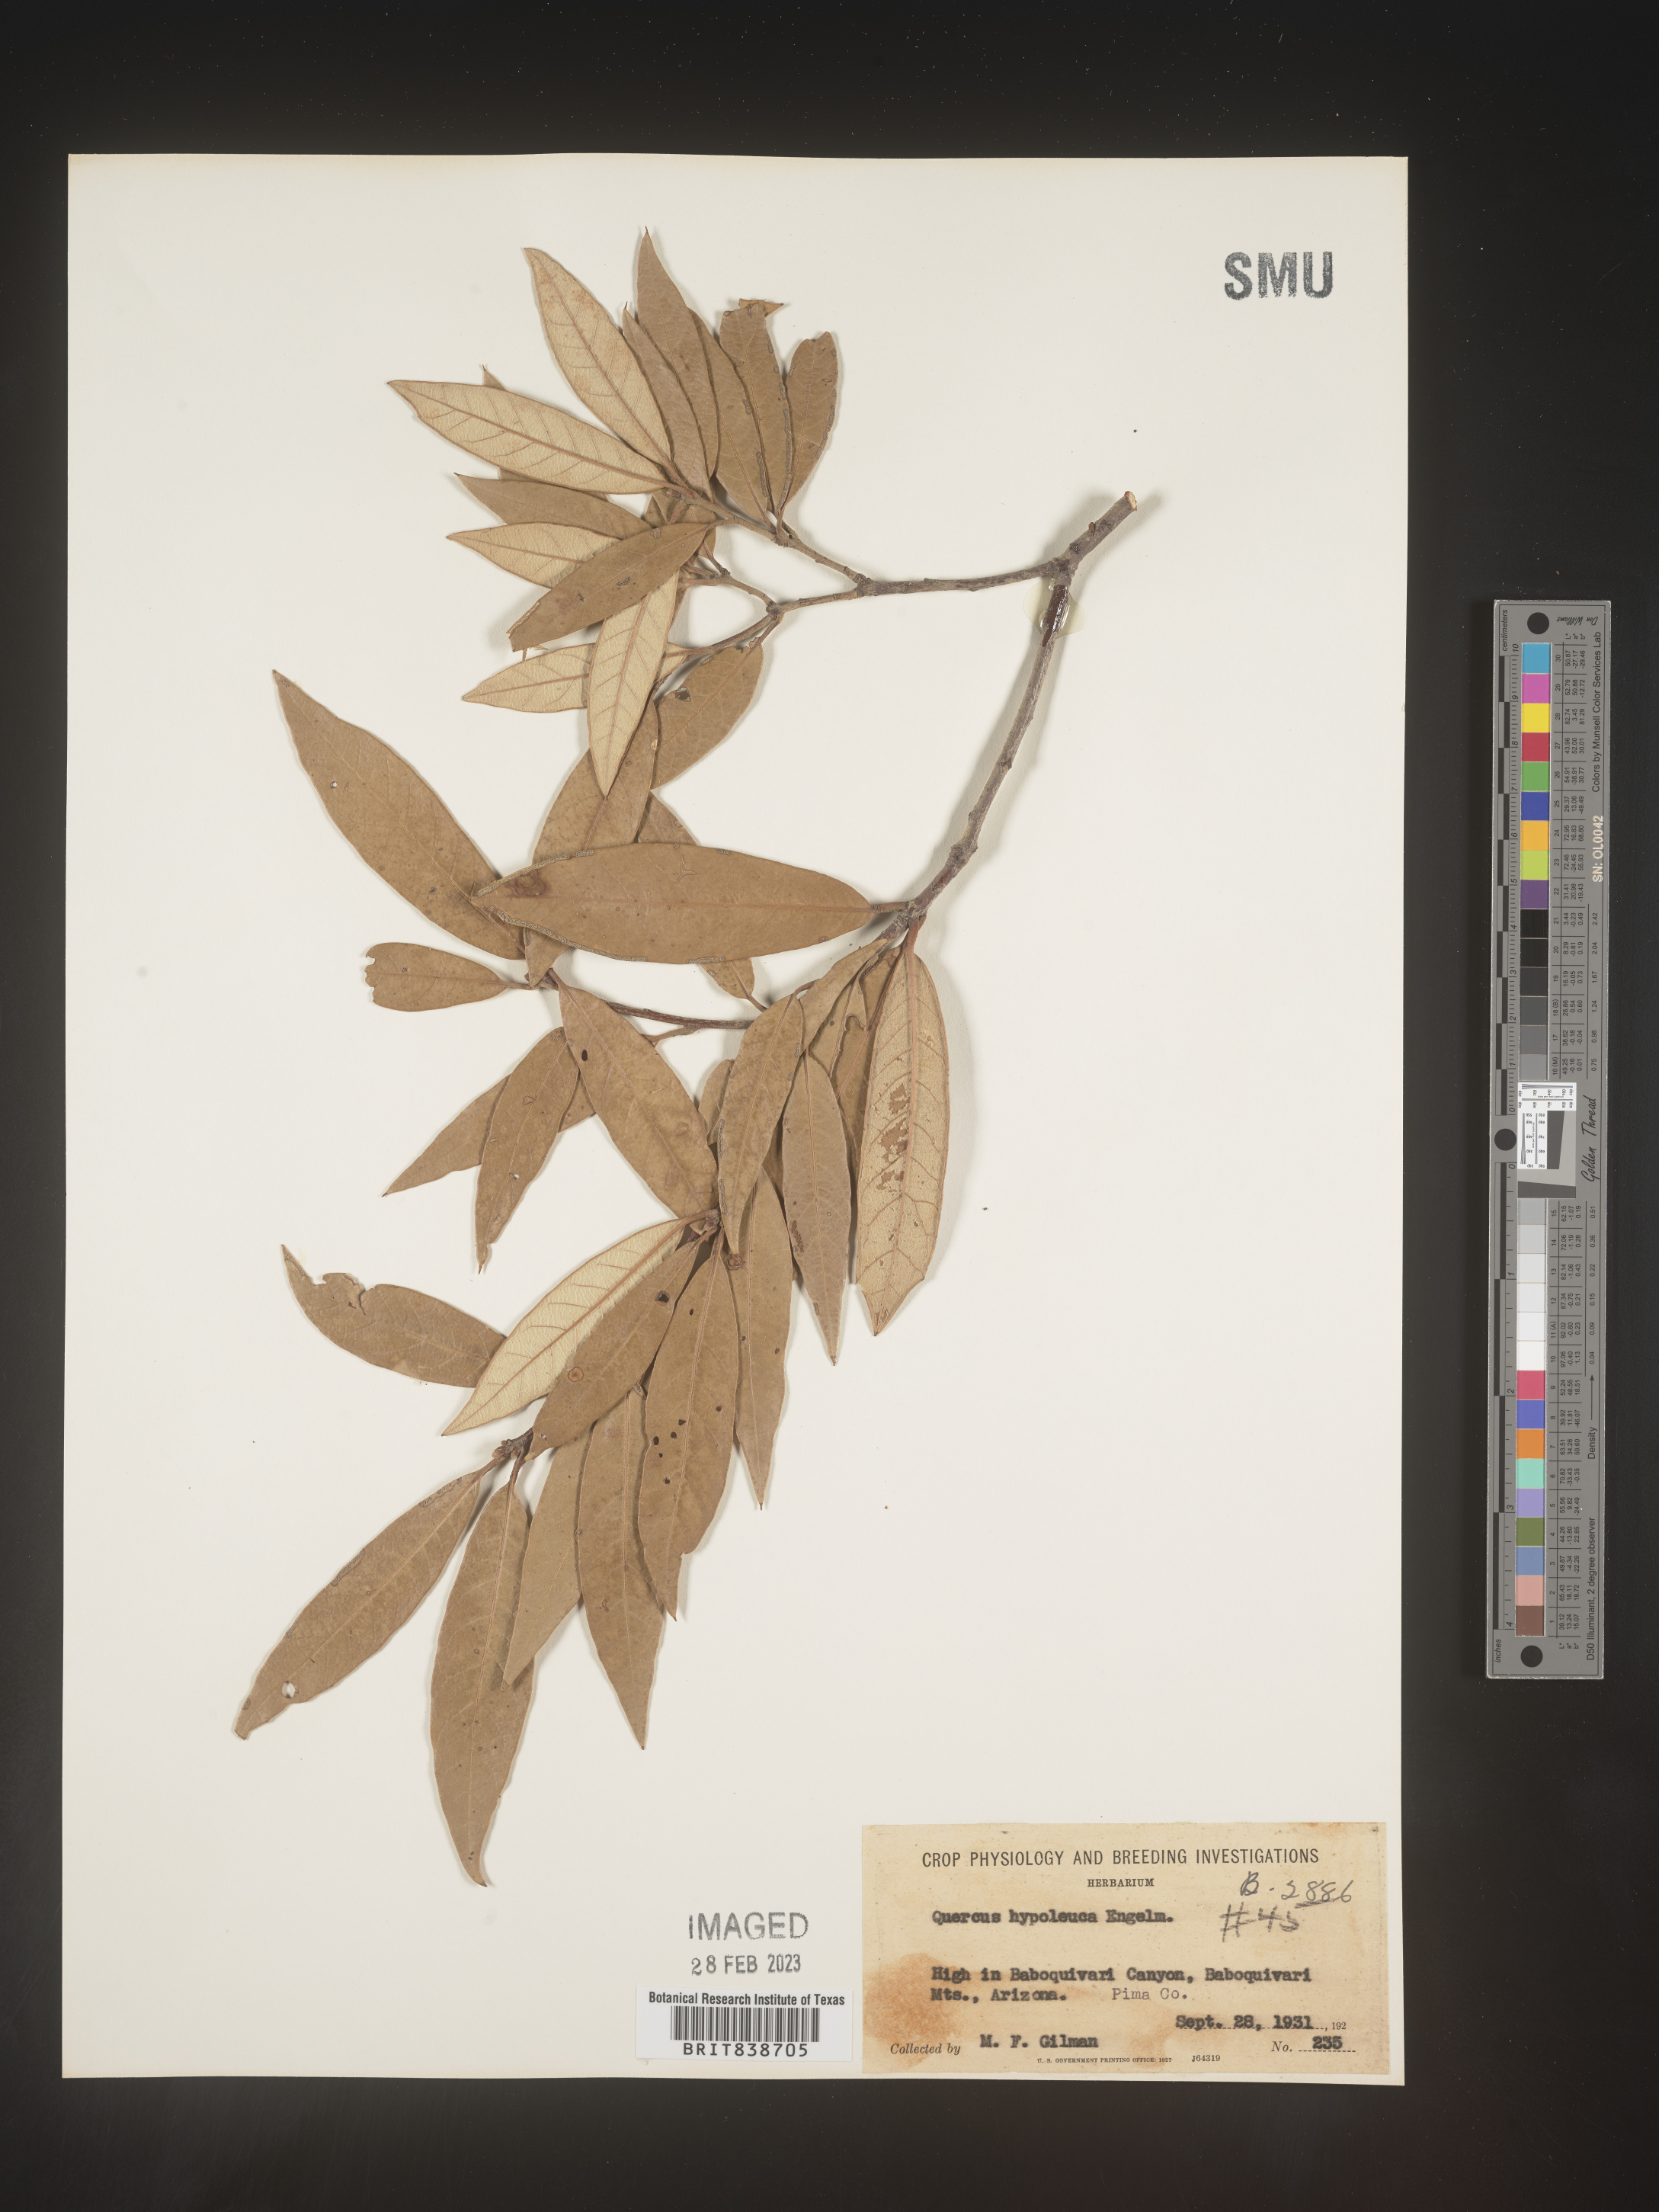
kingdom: Plantae
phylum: Tracheophyta
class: Magnoliopsida
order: Fagales
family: Fagaceae
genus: Quercus
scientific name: Quercus
